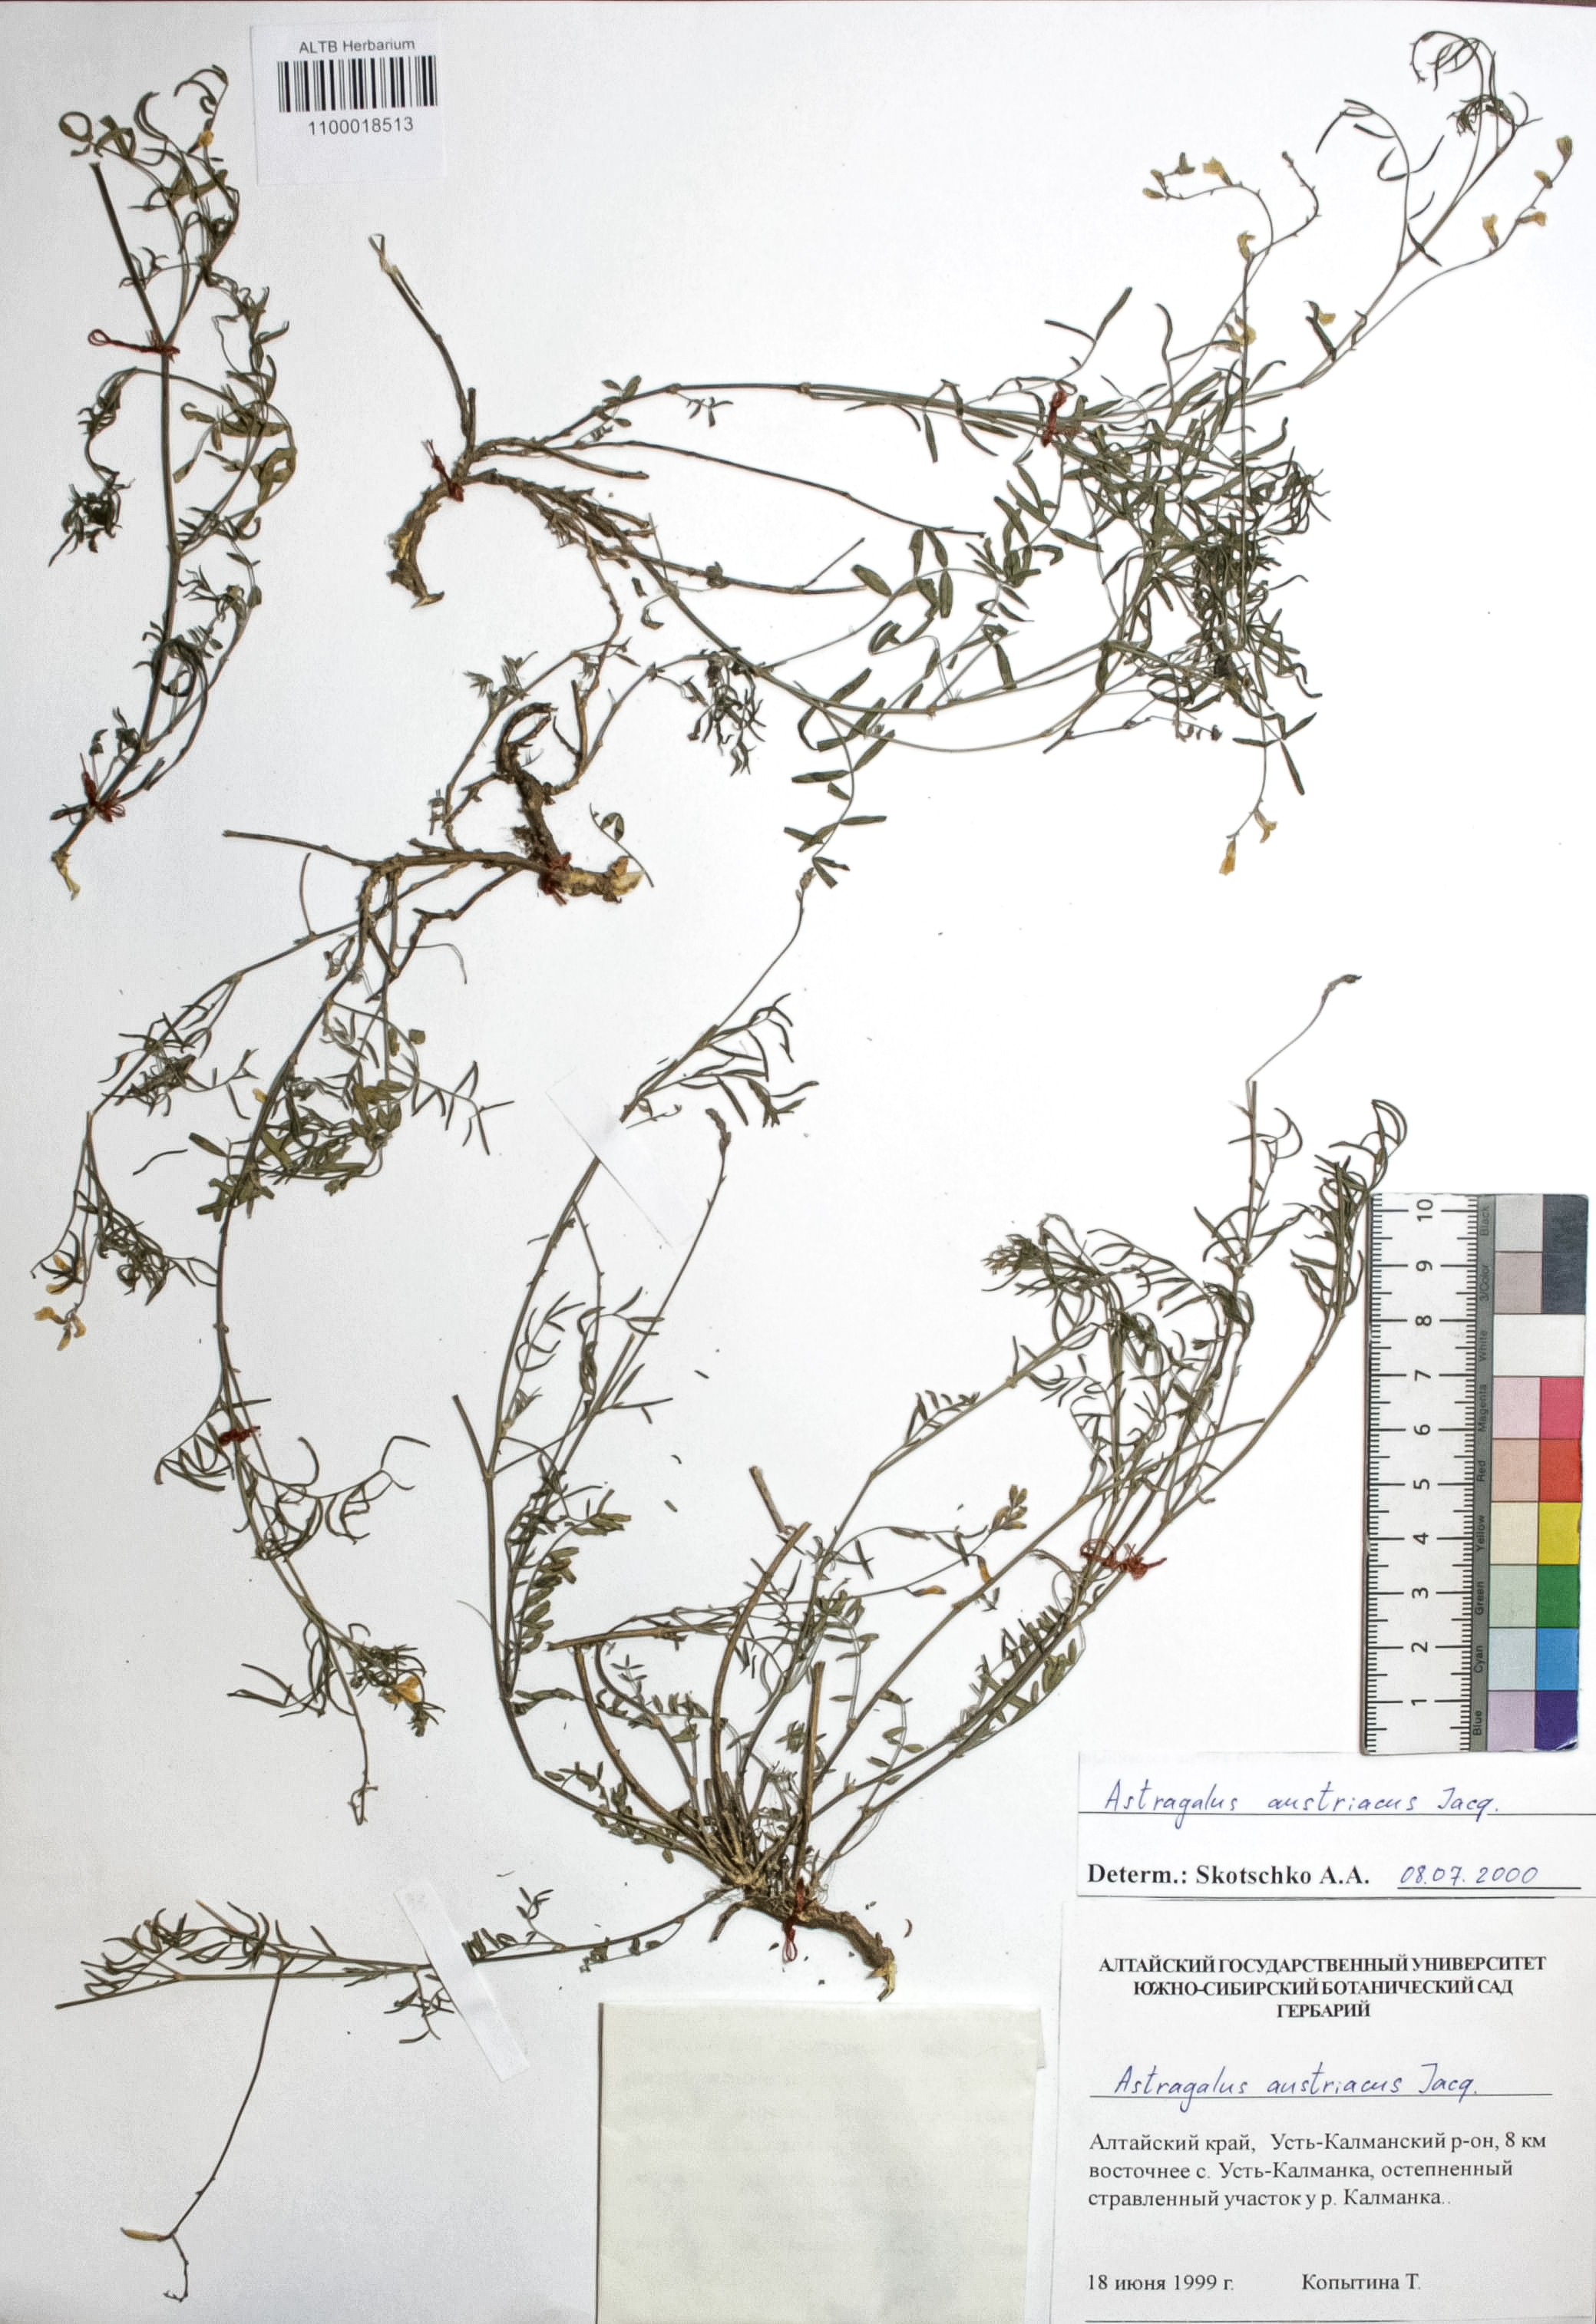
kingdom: Plantae
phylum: Tracheophyta
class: Magnoliopsida
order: Fabales
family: Fabaceae
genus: Astragalus
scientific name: Astragalus austriacus
